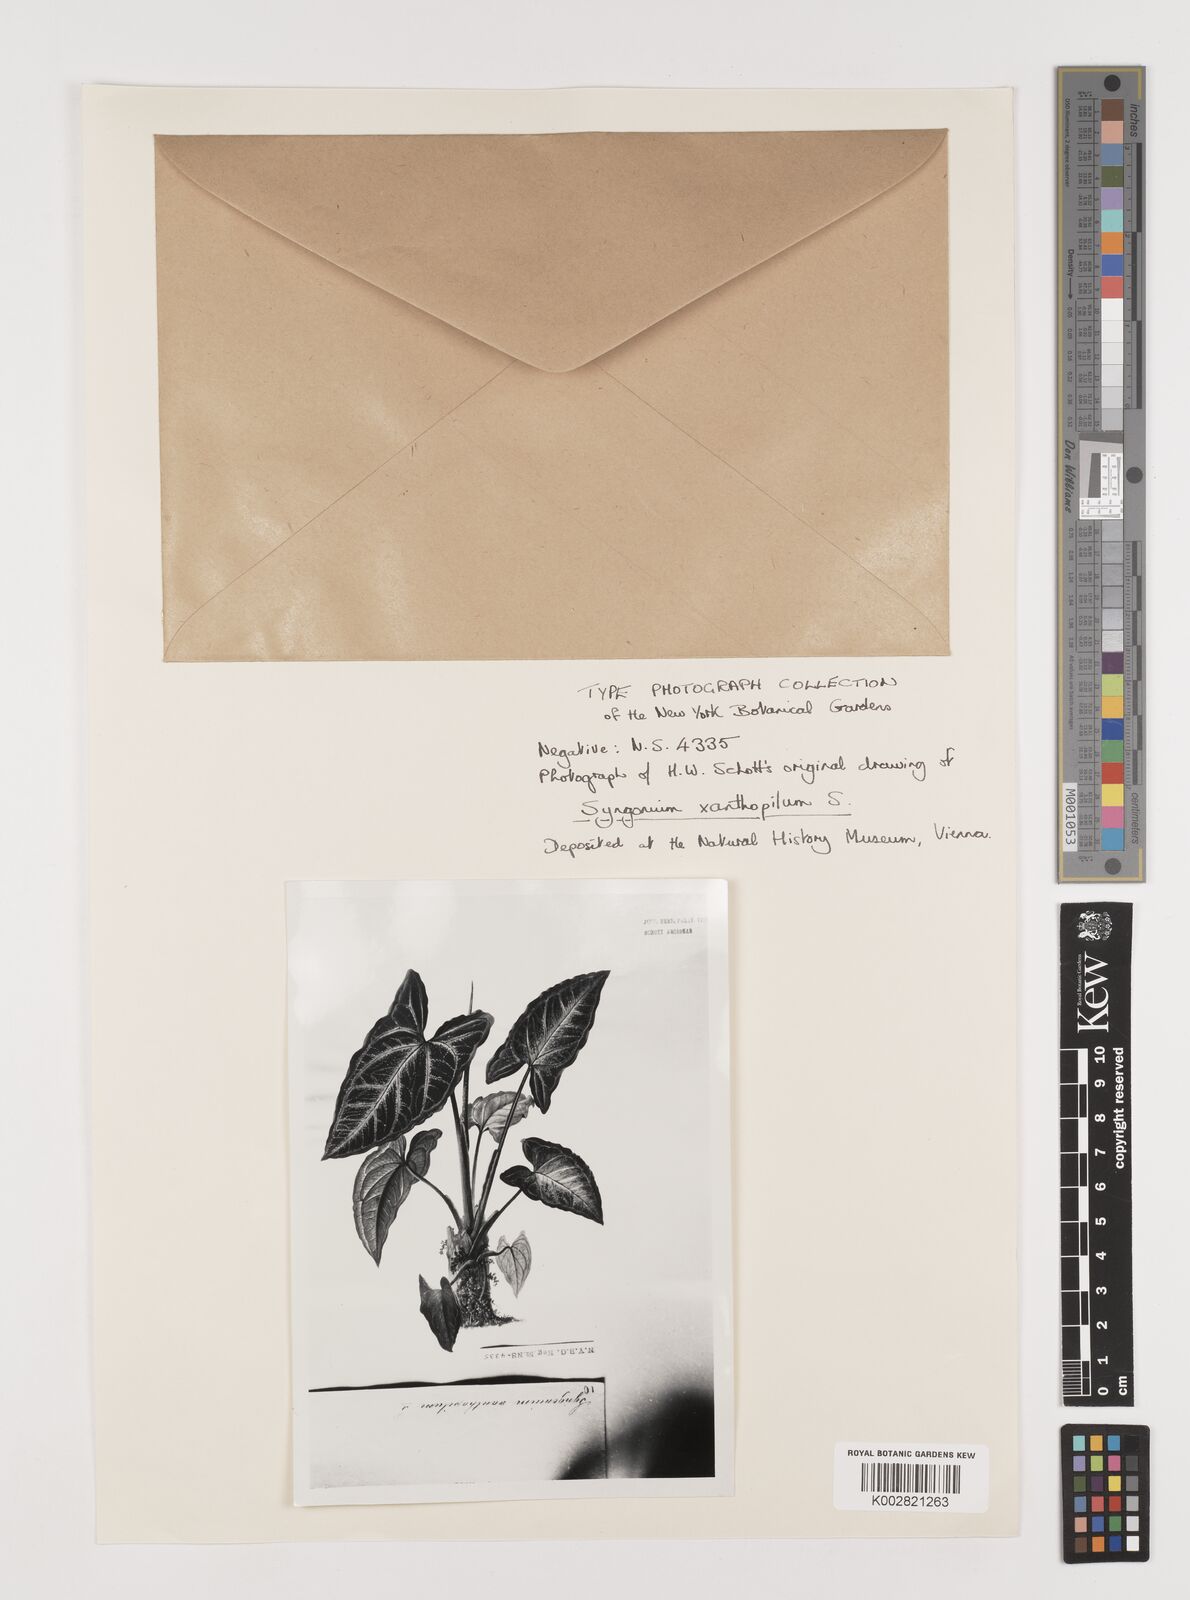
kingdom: Plantae
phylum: Tracheophyta
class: Liliopsida
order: Alismatales
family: Araceae
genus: Syngonium
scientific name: Syngonium podophyllum
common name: American evergreen
